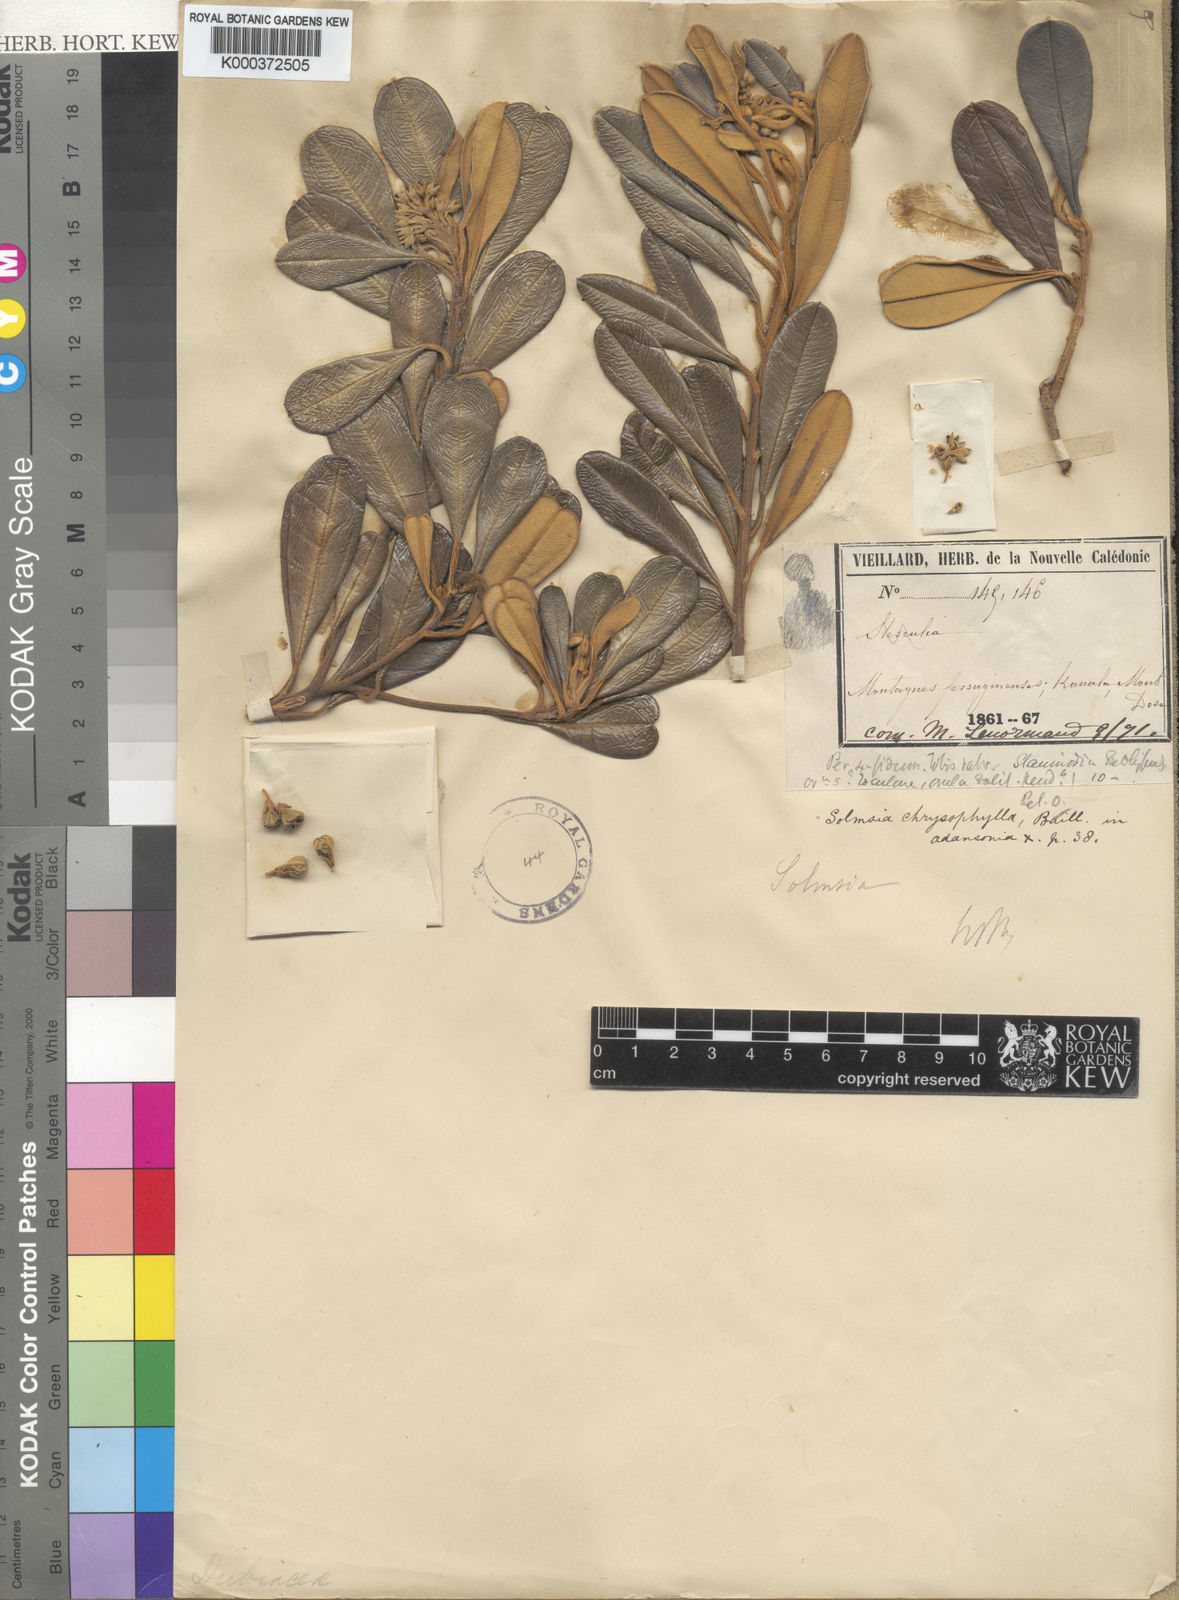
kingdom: Plantae
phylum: Tracheophyta
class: Magnoliopsida
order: Malvales
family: Thymelaeaceae
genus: Solmsia
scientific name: Solmsia
